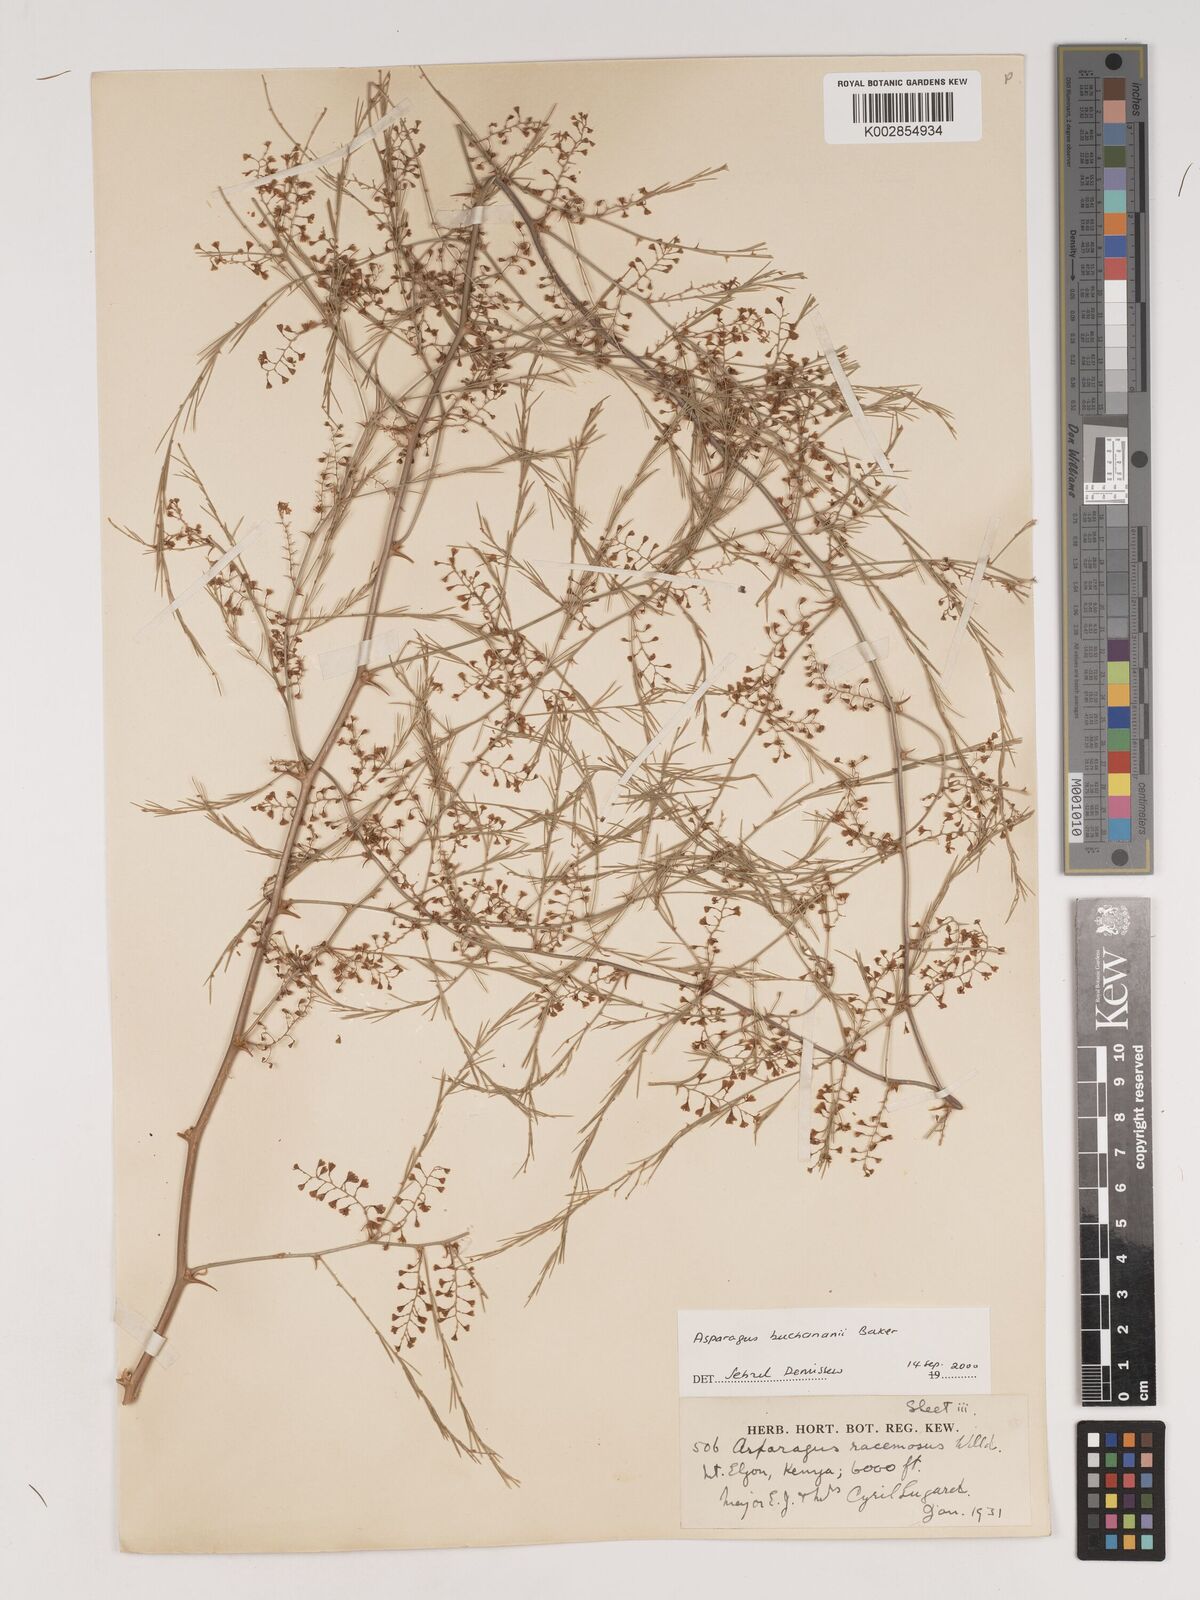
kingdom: Plantae
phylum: Tracheophyta
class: Liliopsida
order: Asparagales
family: Asparagaceae
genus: Asparagus
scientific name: Asparagus buchananii
